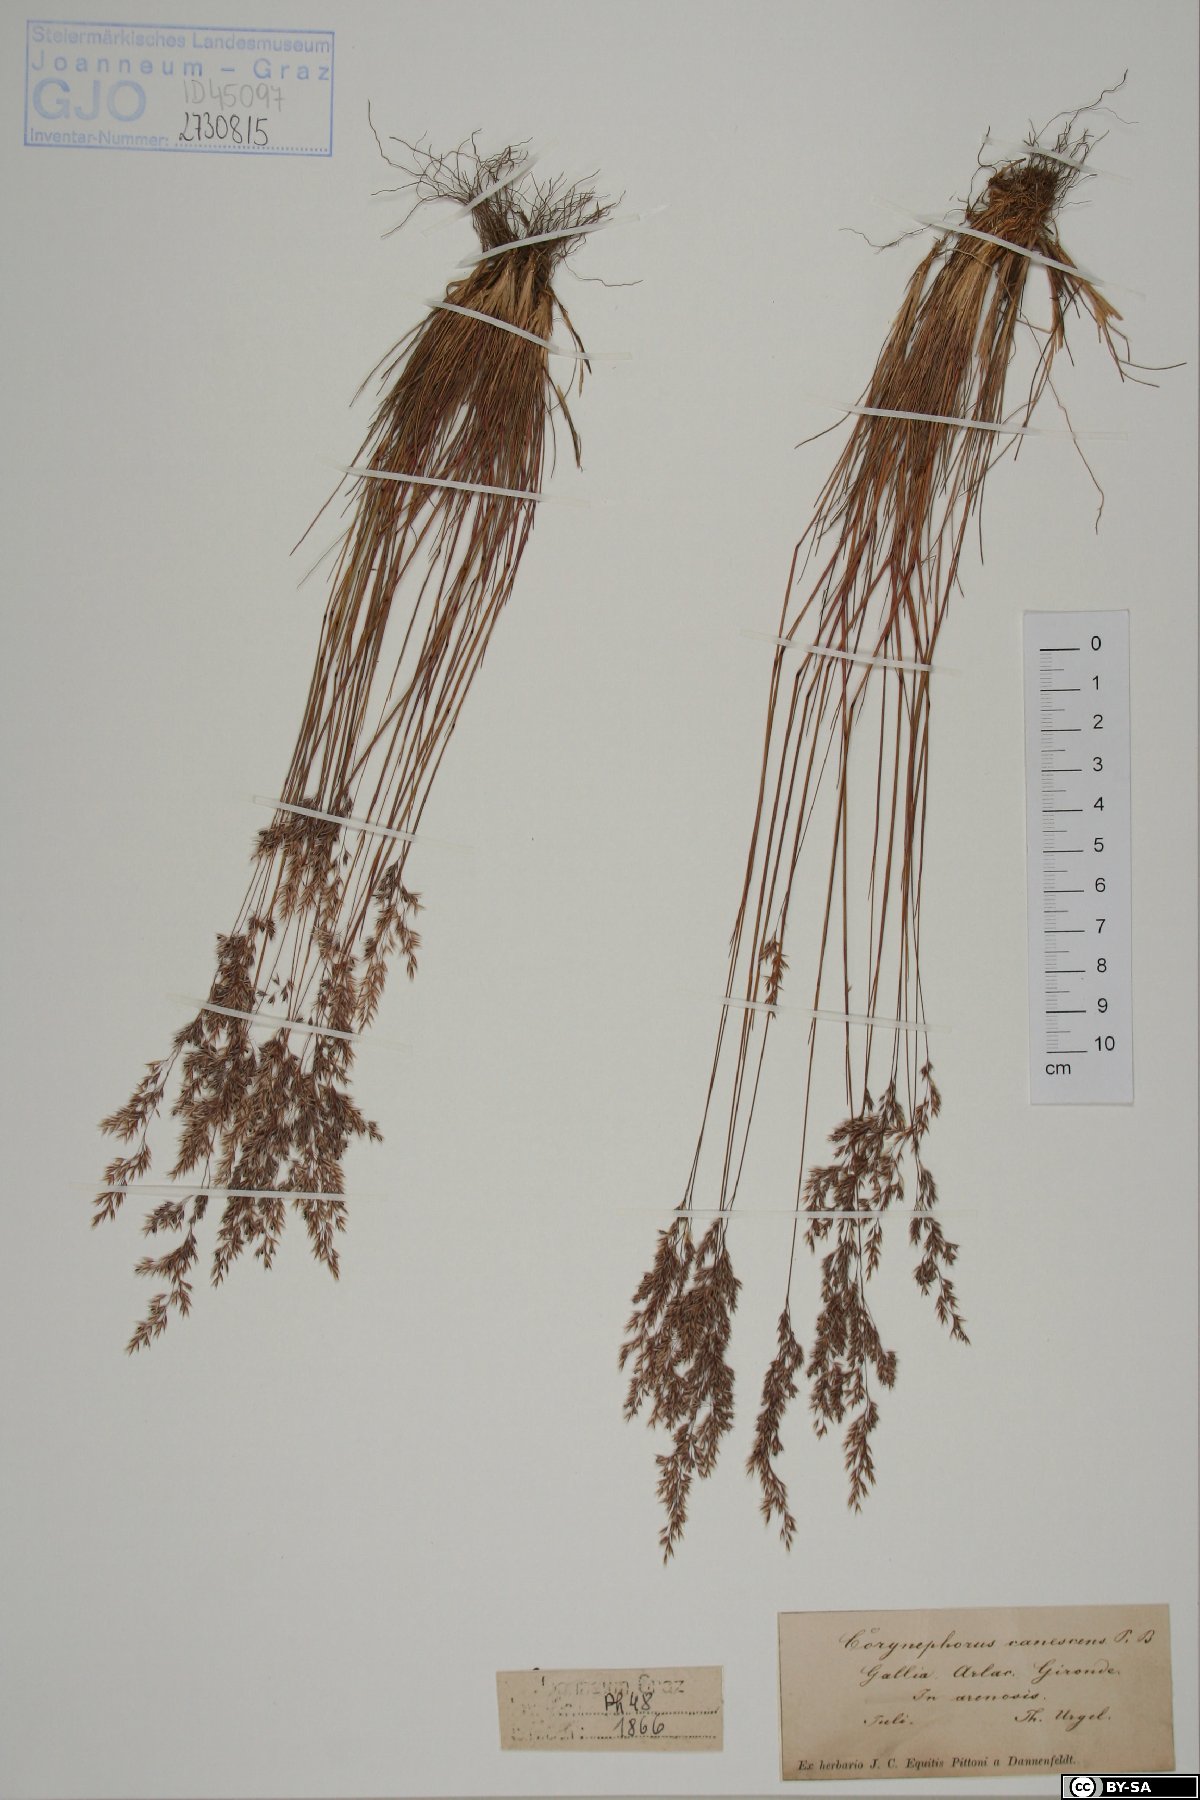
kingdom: Plantae
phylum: Tracheophyta
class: Liliopsida
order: Poales
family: Poaceae
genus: Corynephorus
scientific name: Corynephorus canescens
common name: Grey hair-grass
